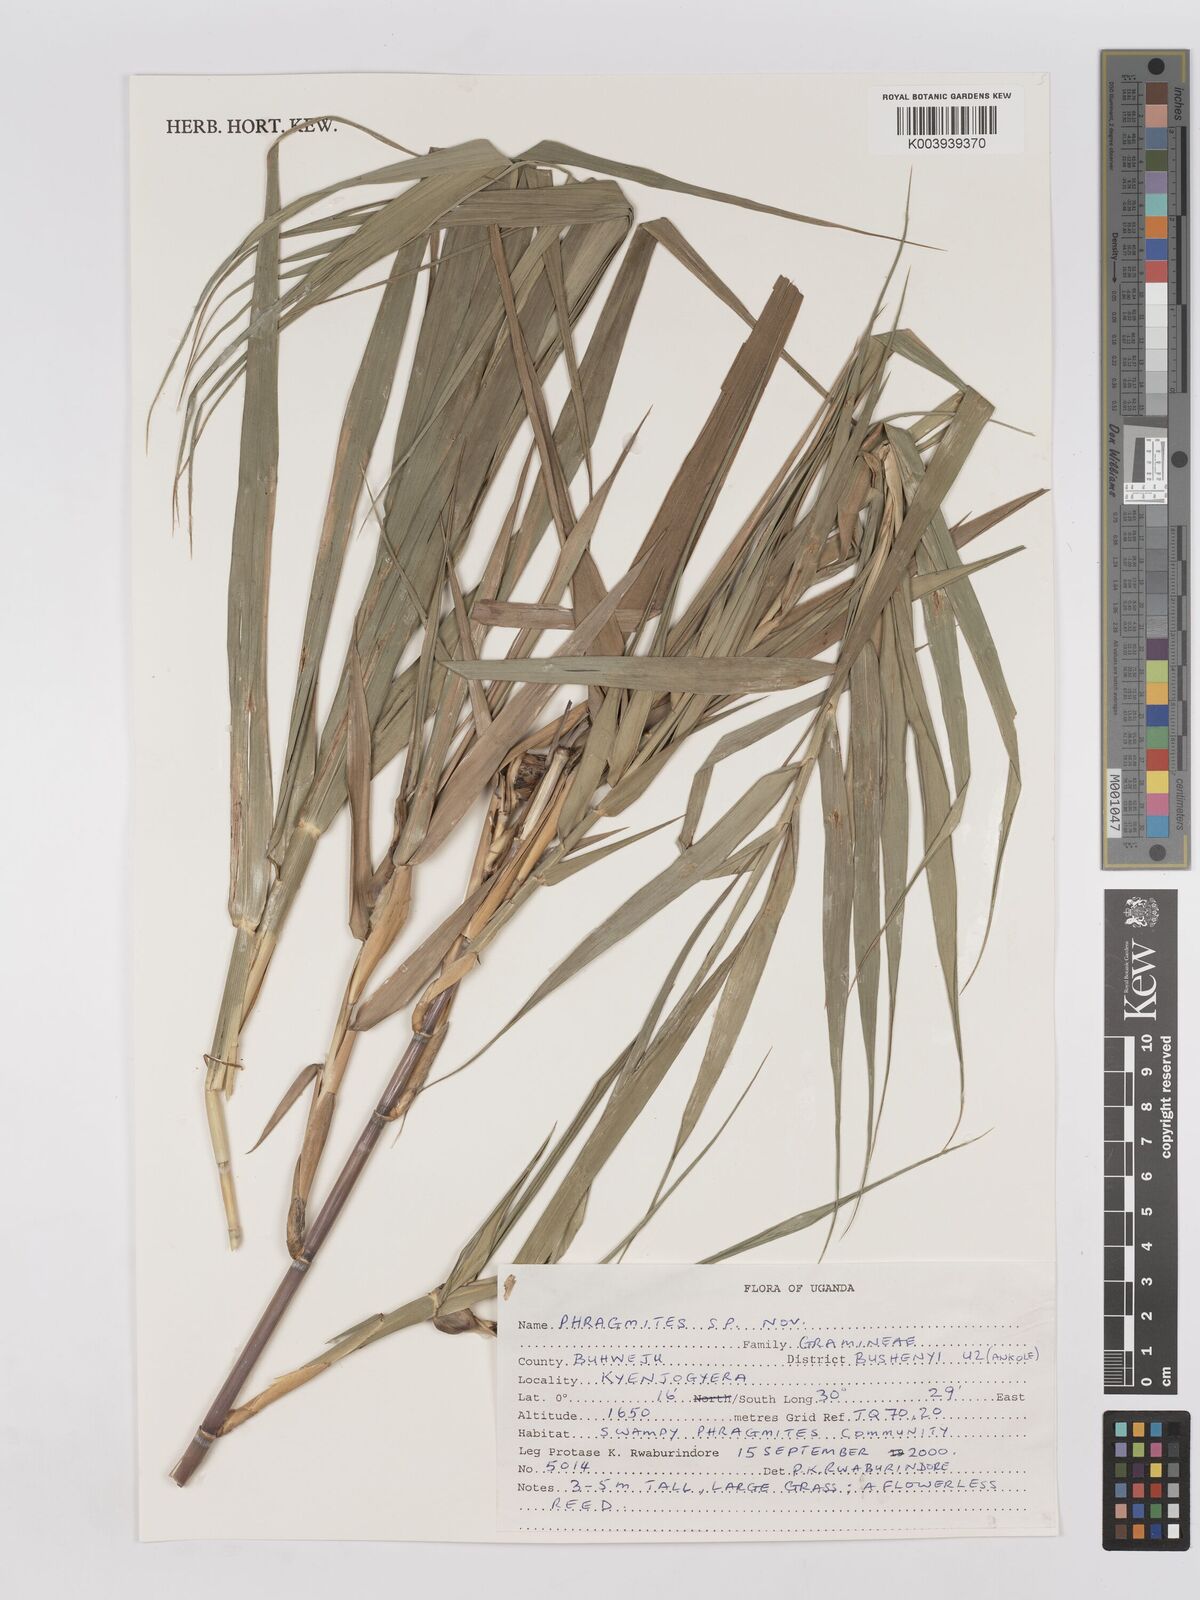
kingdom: Plantae
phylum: Tracheophyta
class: Liliopsida
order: Poales
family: Poaceae
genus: Phragmites
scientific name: Phragmites
